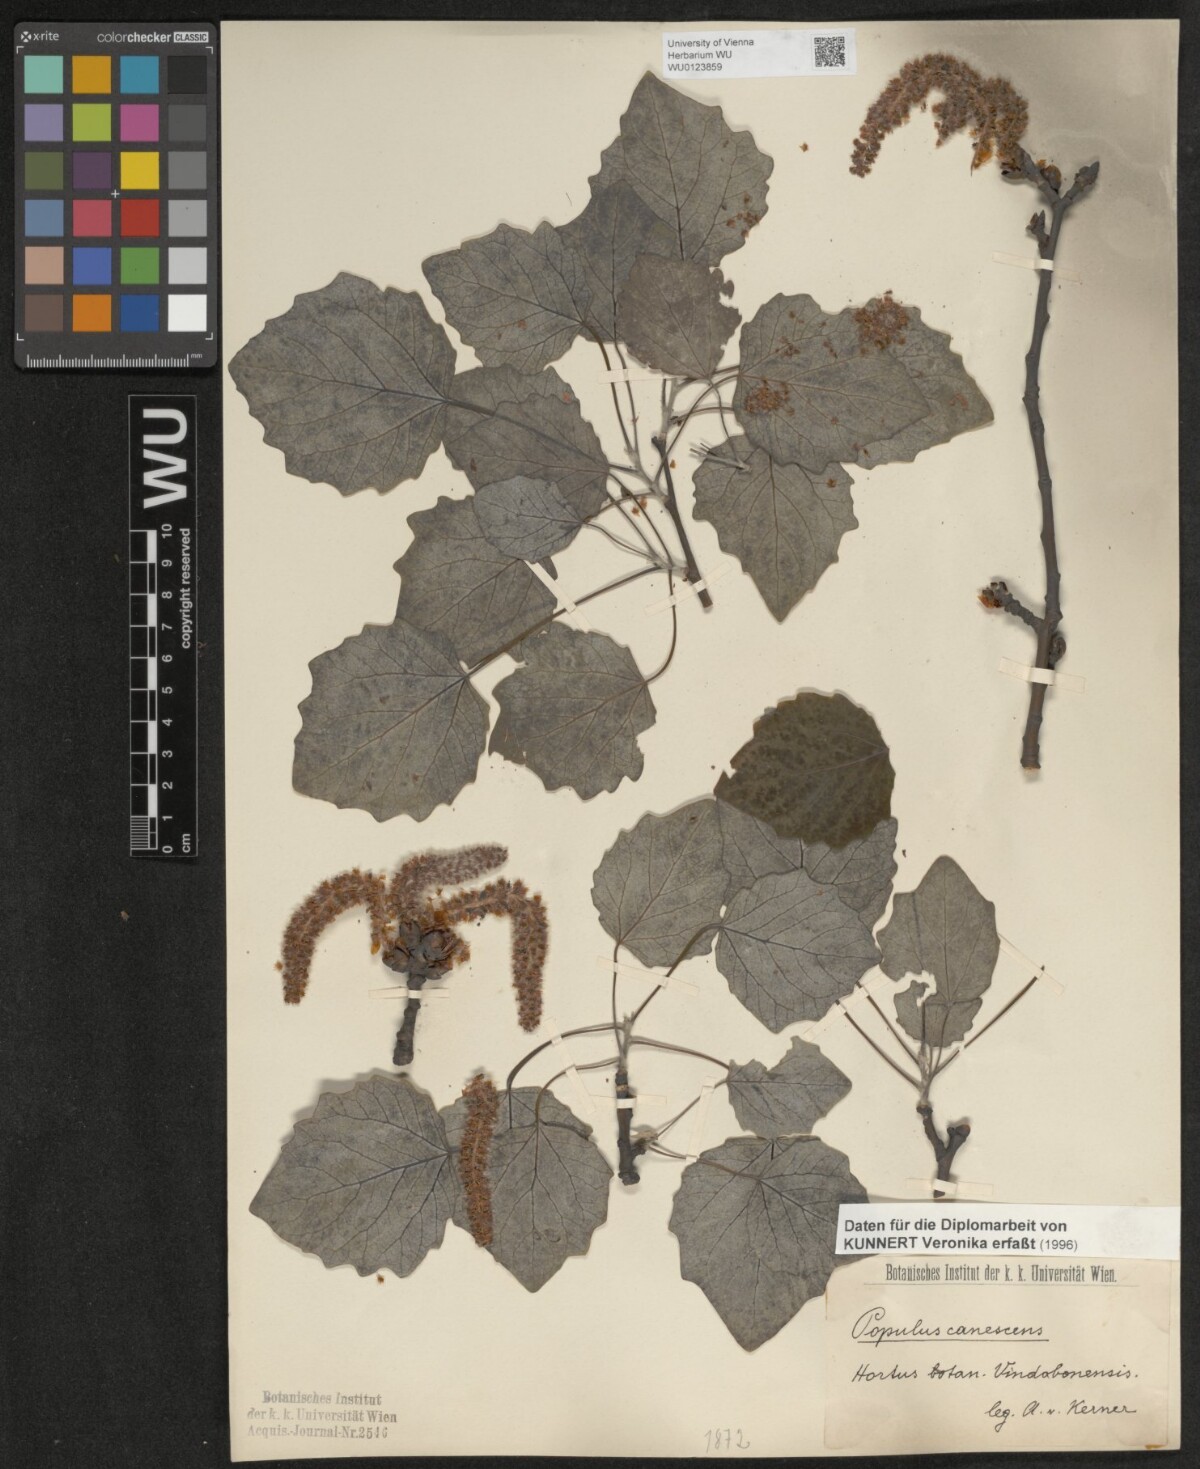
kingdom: Plantae
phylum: Tracheophyta
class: Magnoliopsida
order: Malpighiales
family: Salicaceae
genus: Populus
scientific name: Populus canescens
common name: Gray poplar
